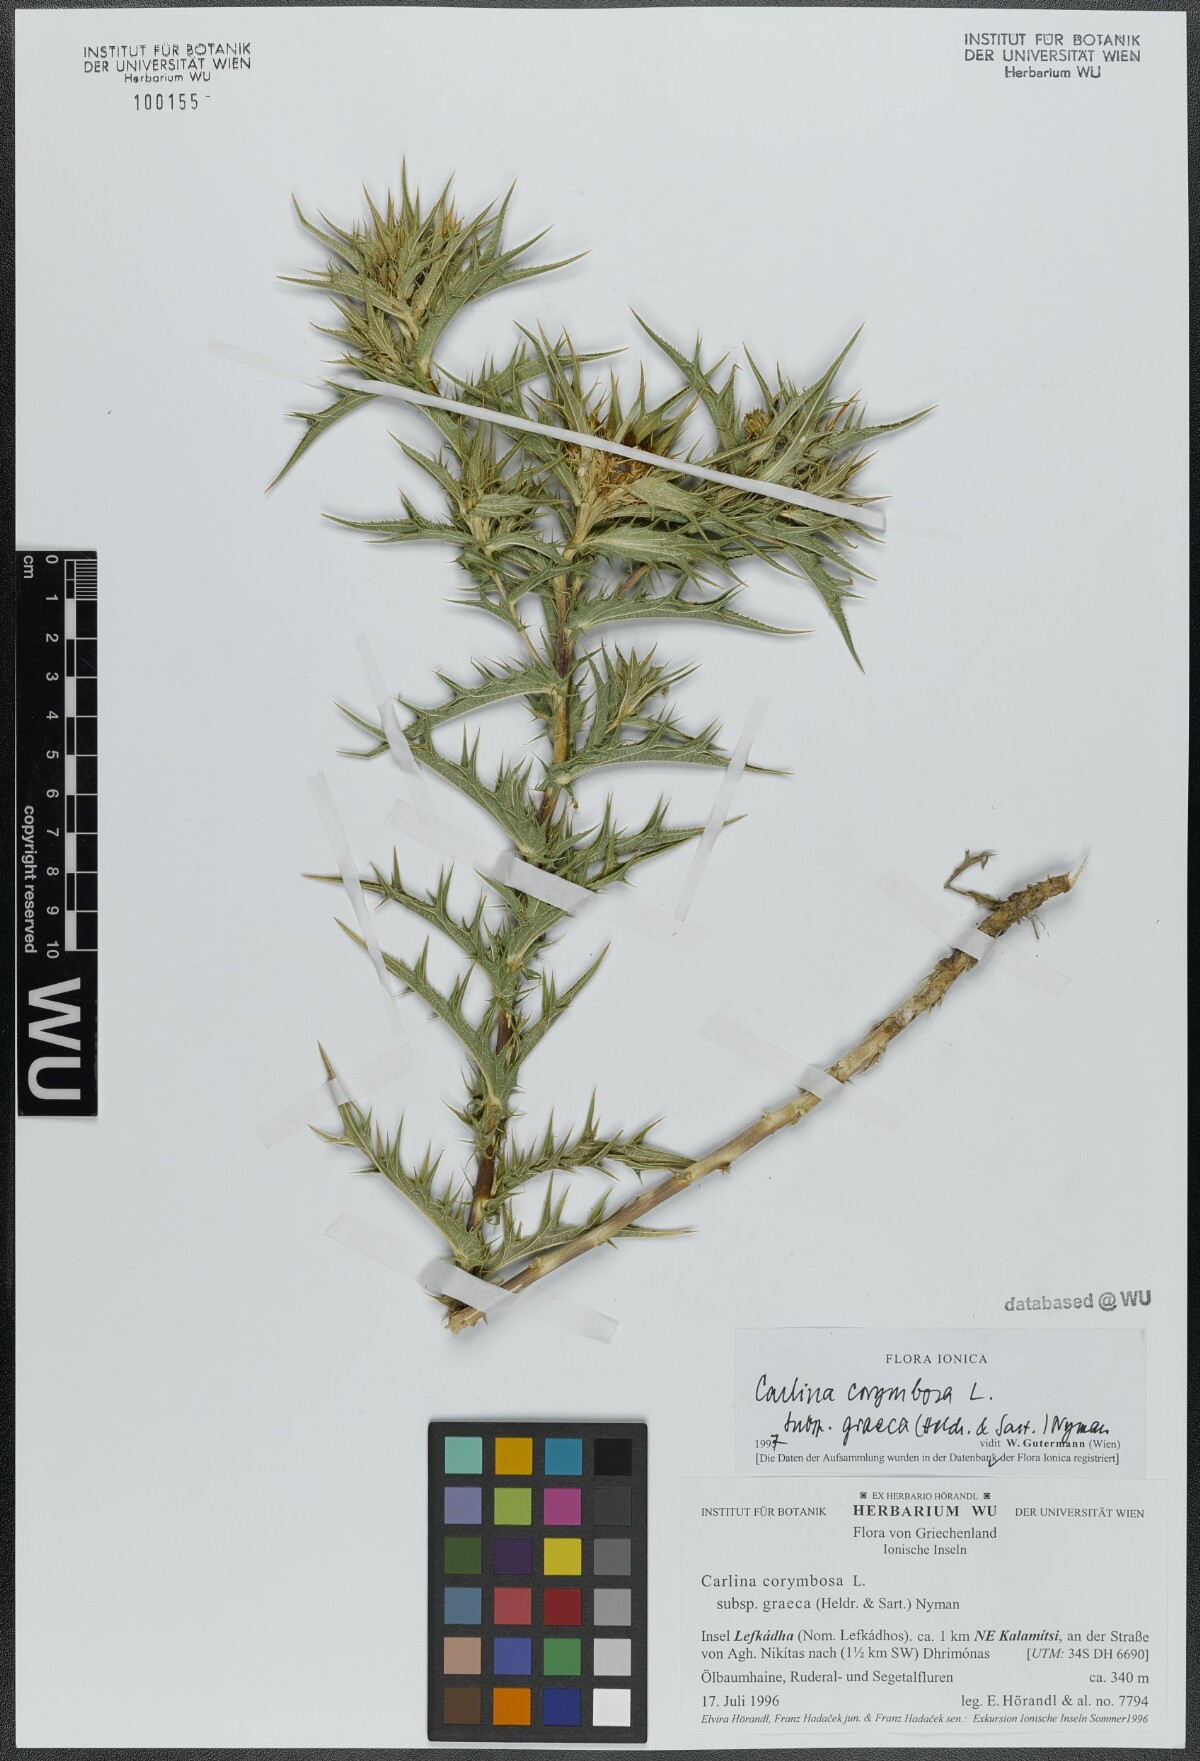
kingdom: Plantae
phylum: Tracheophyta
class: Magnoliopsida
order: Asterales
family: Asteraceae
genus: Carlina
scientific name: Carlina graeca
